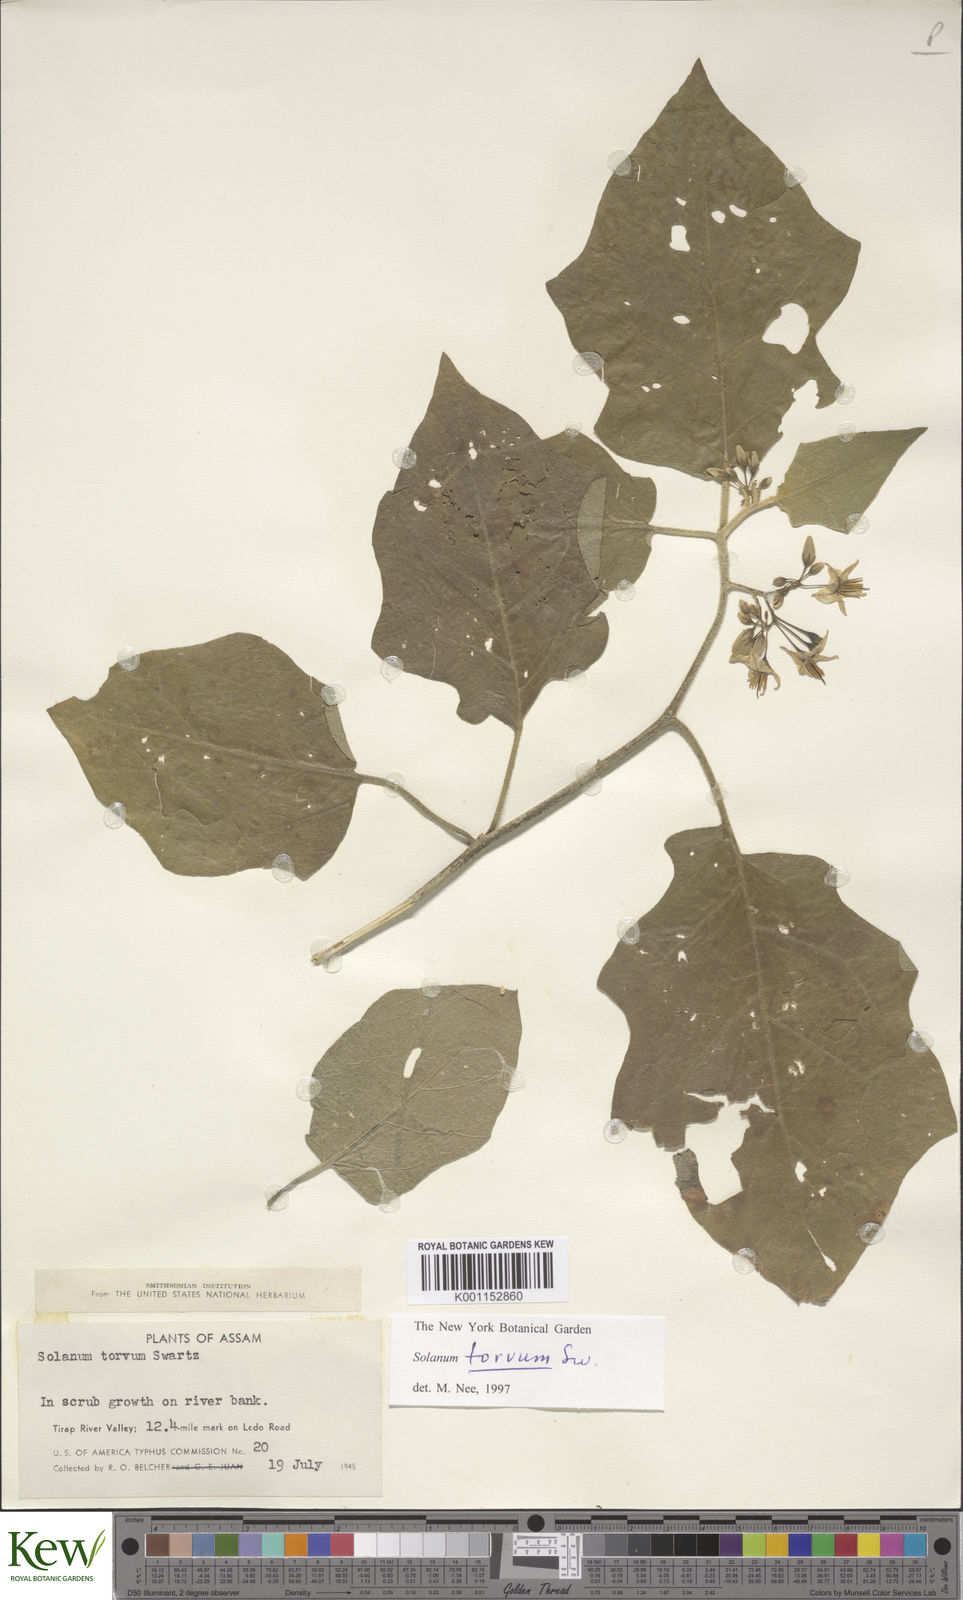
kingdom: Plantae
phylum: Tracheophyta
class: Magnoliopsida
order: Solanales
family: Solanaceae
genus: Solanum
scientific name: Solanum torvum
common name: Turkey berry
